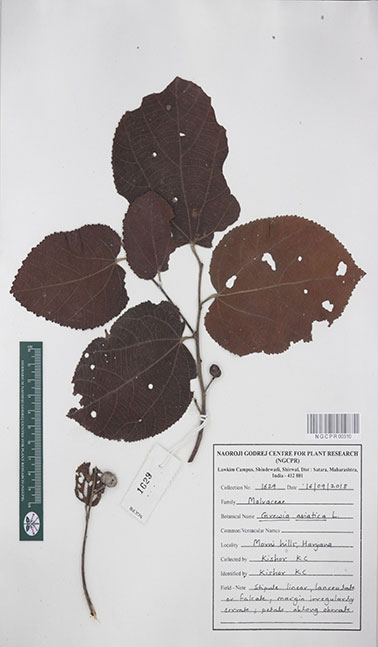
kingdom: Plantae
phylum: Tracheophyta
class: Magnoliopsida
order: Malvales
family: Malvaceae
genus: Grewia
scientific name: Grewia asiatica
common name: Phalsa
